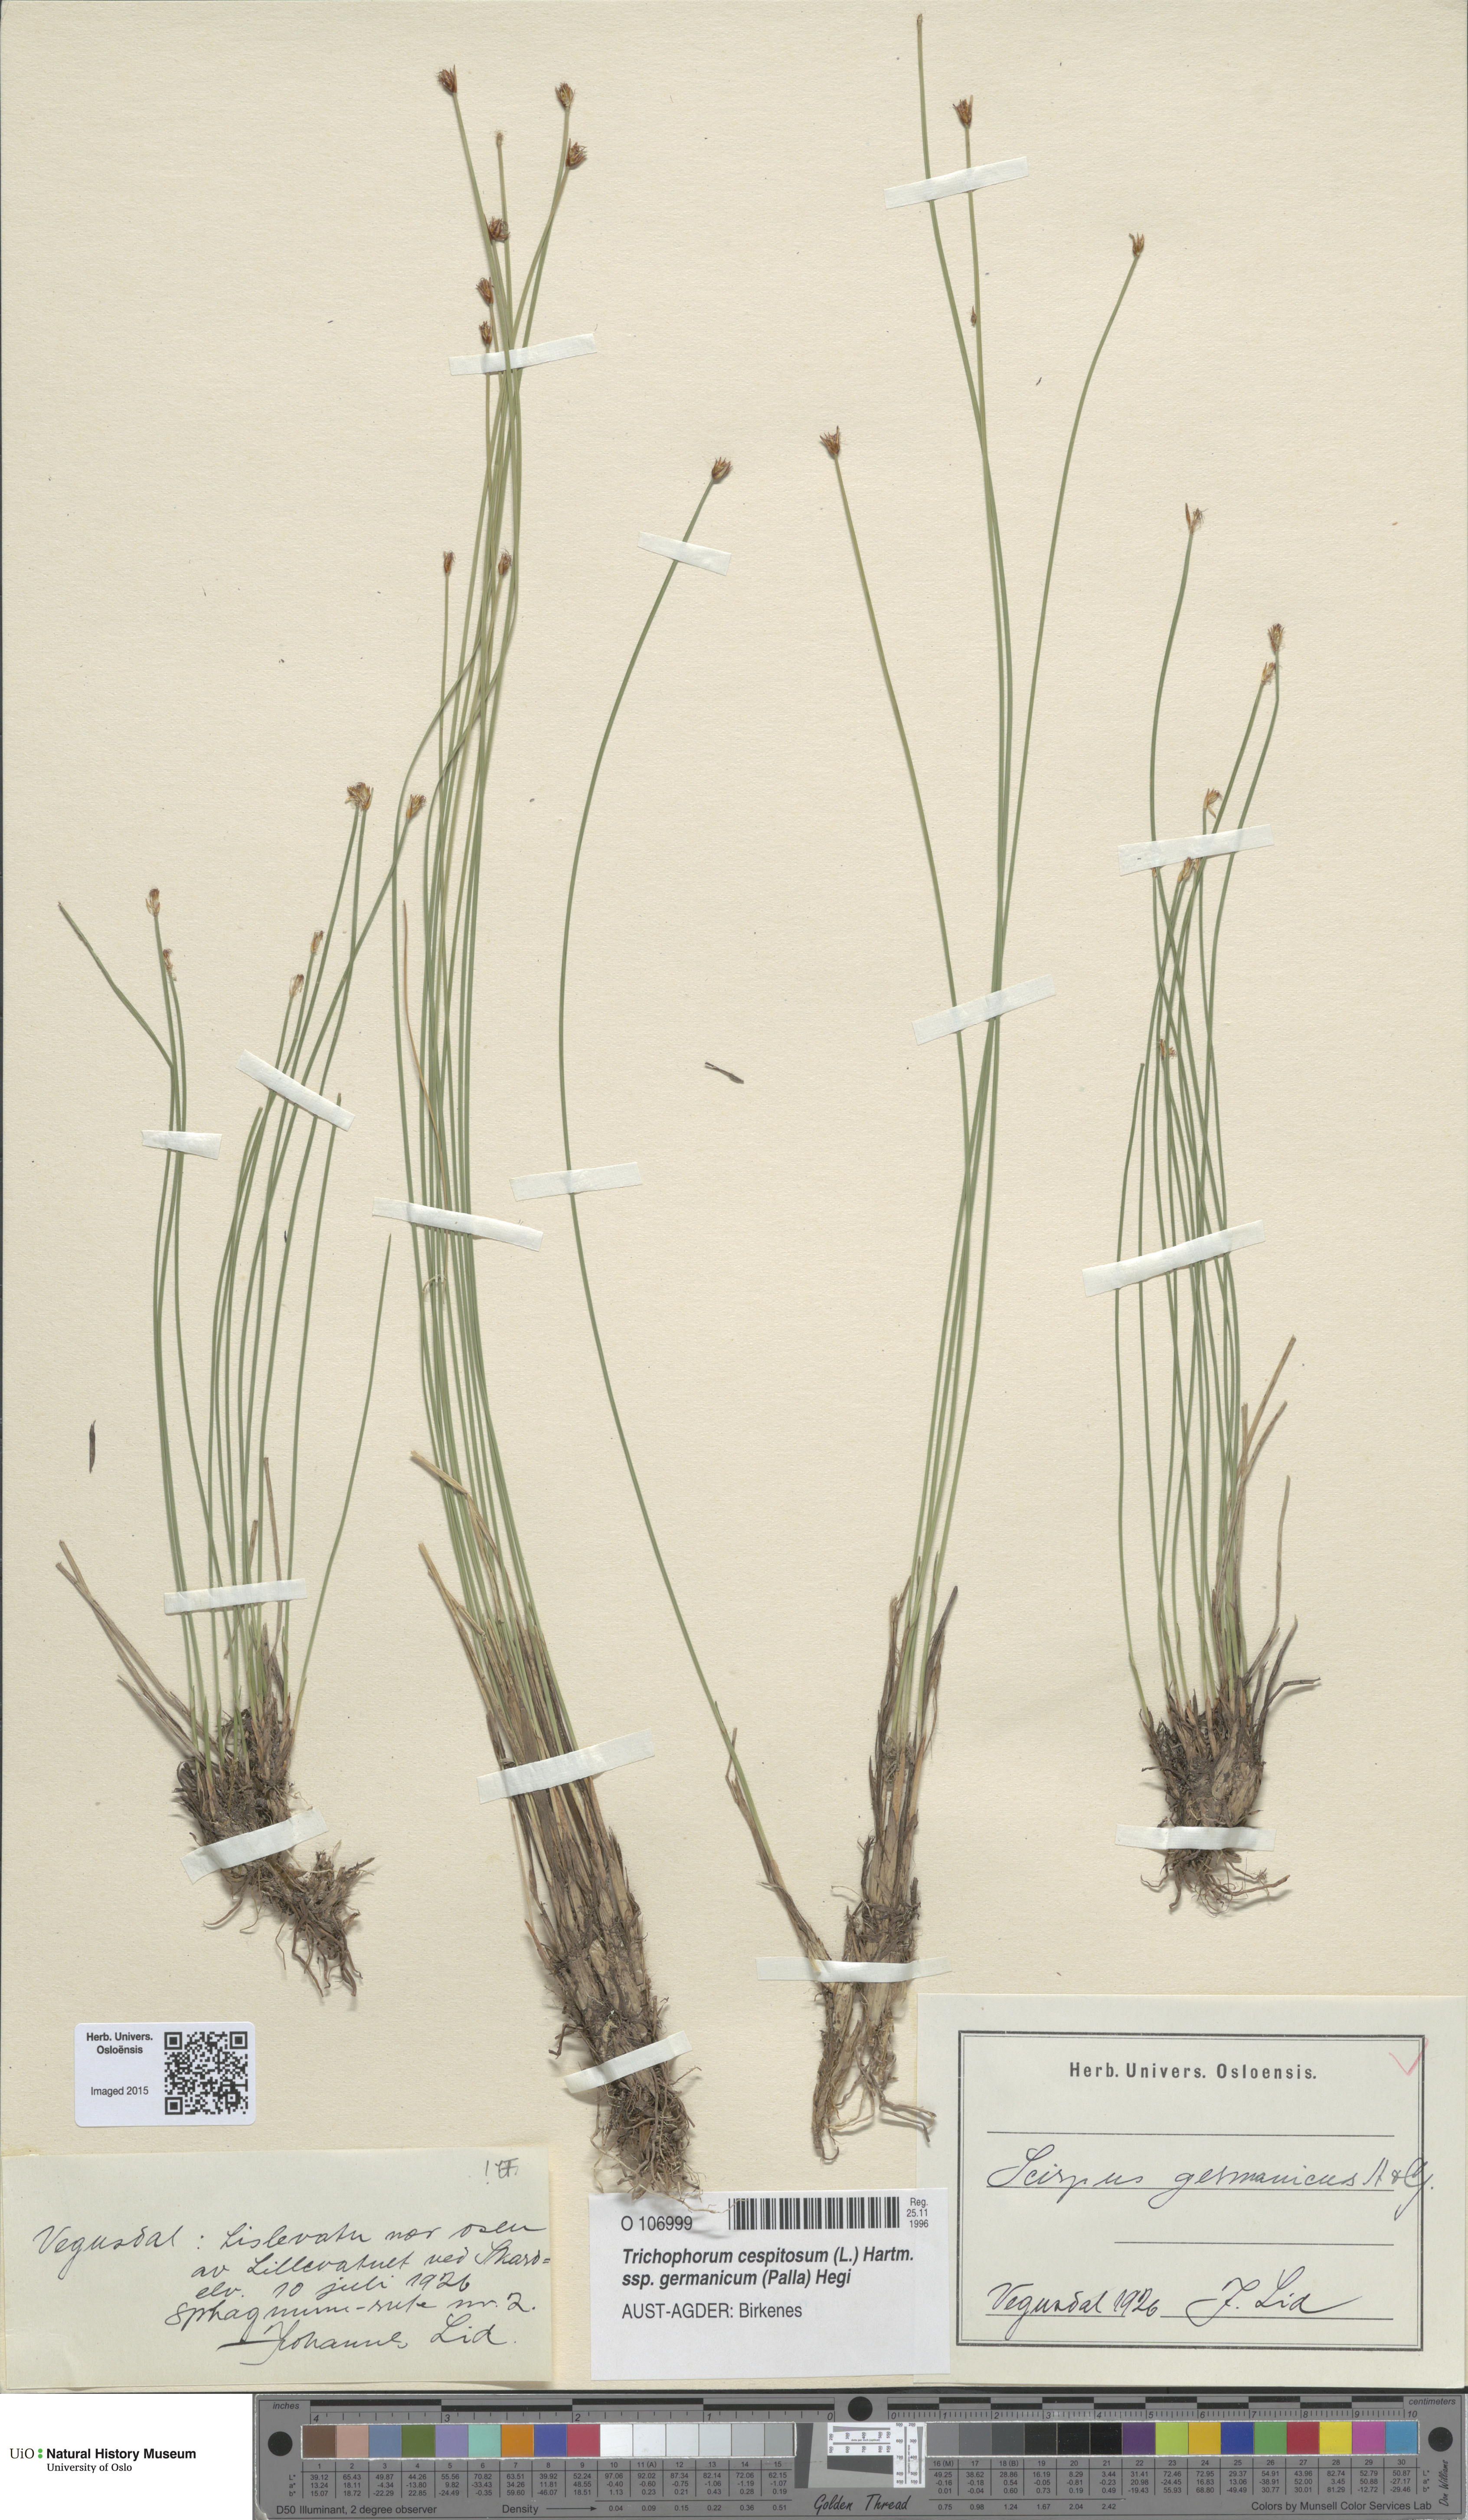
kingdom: Plantae
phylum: Tracheophyta
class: Liliopsida
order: Poales
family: Cyperaceae
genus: Trichophorum
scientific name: Trichophorum cespitosum
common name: Cespitose bulrush
